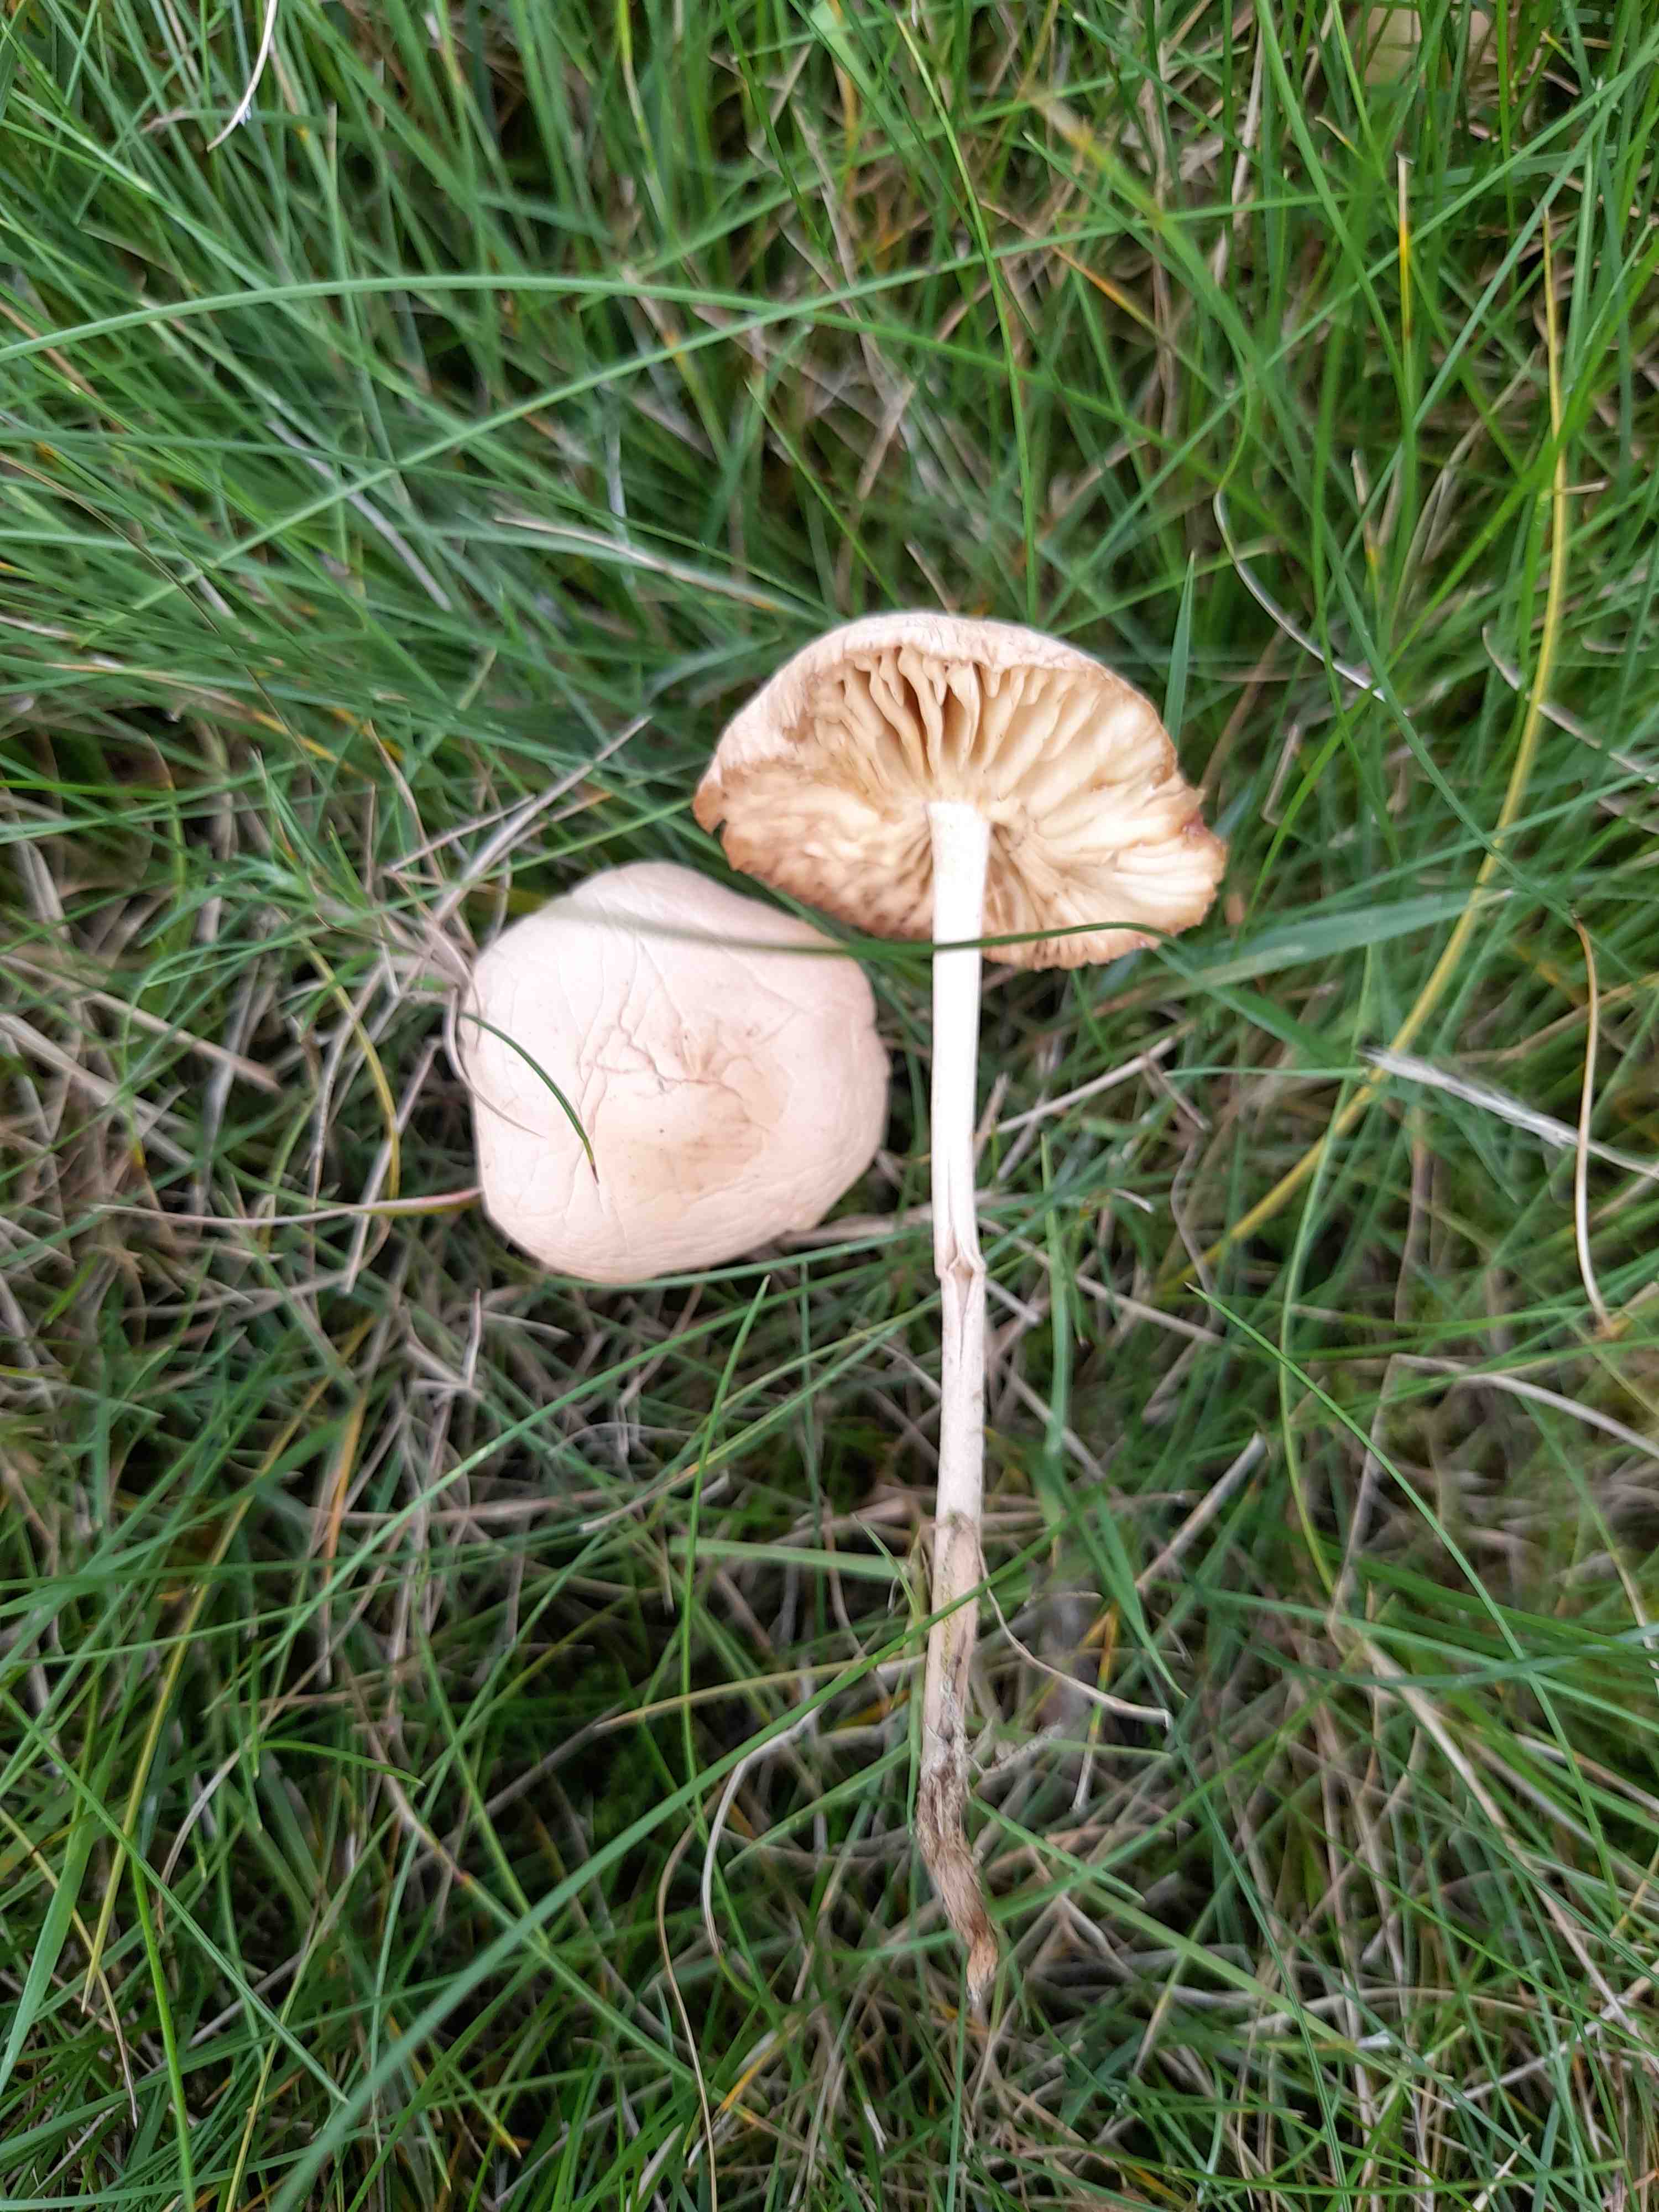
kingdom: Fungi
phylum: Basidiomycota
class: Agaricomycetes
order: Agaricales
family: Marasmiaceae
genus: Marasmius
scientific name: Marasmius oreades
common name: elledans-bruskhat
